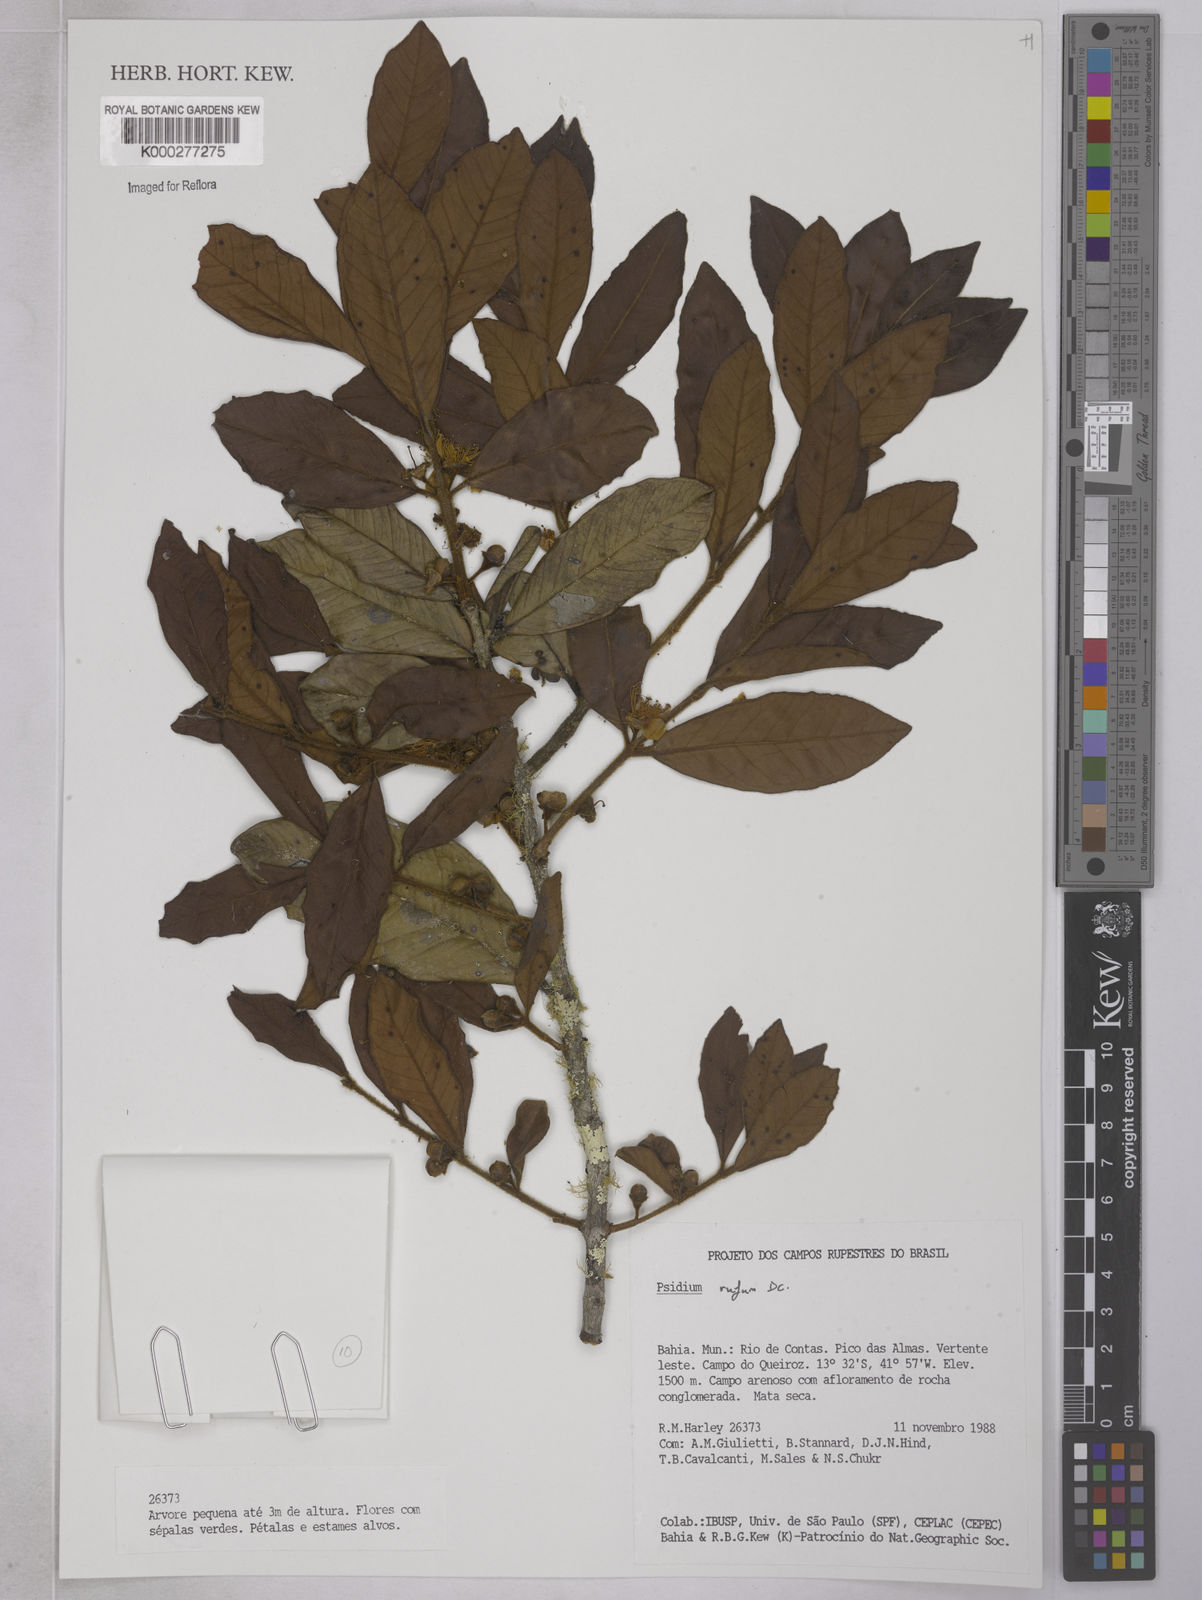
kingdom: Plantae
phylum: Tracheophyta
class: Magnoliopsida
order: Myrtales
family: Myrtaceae
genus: Psidium
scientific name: Psidium rufum
